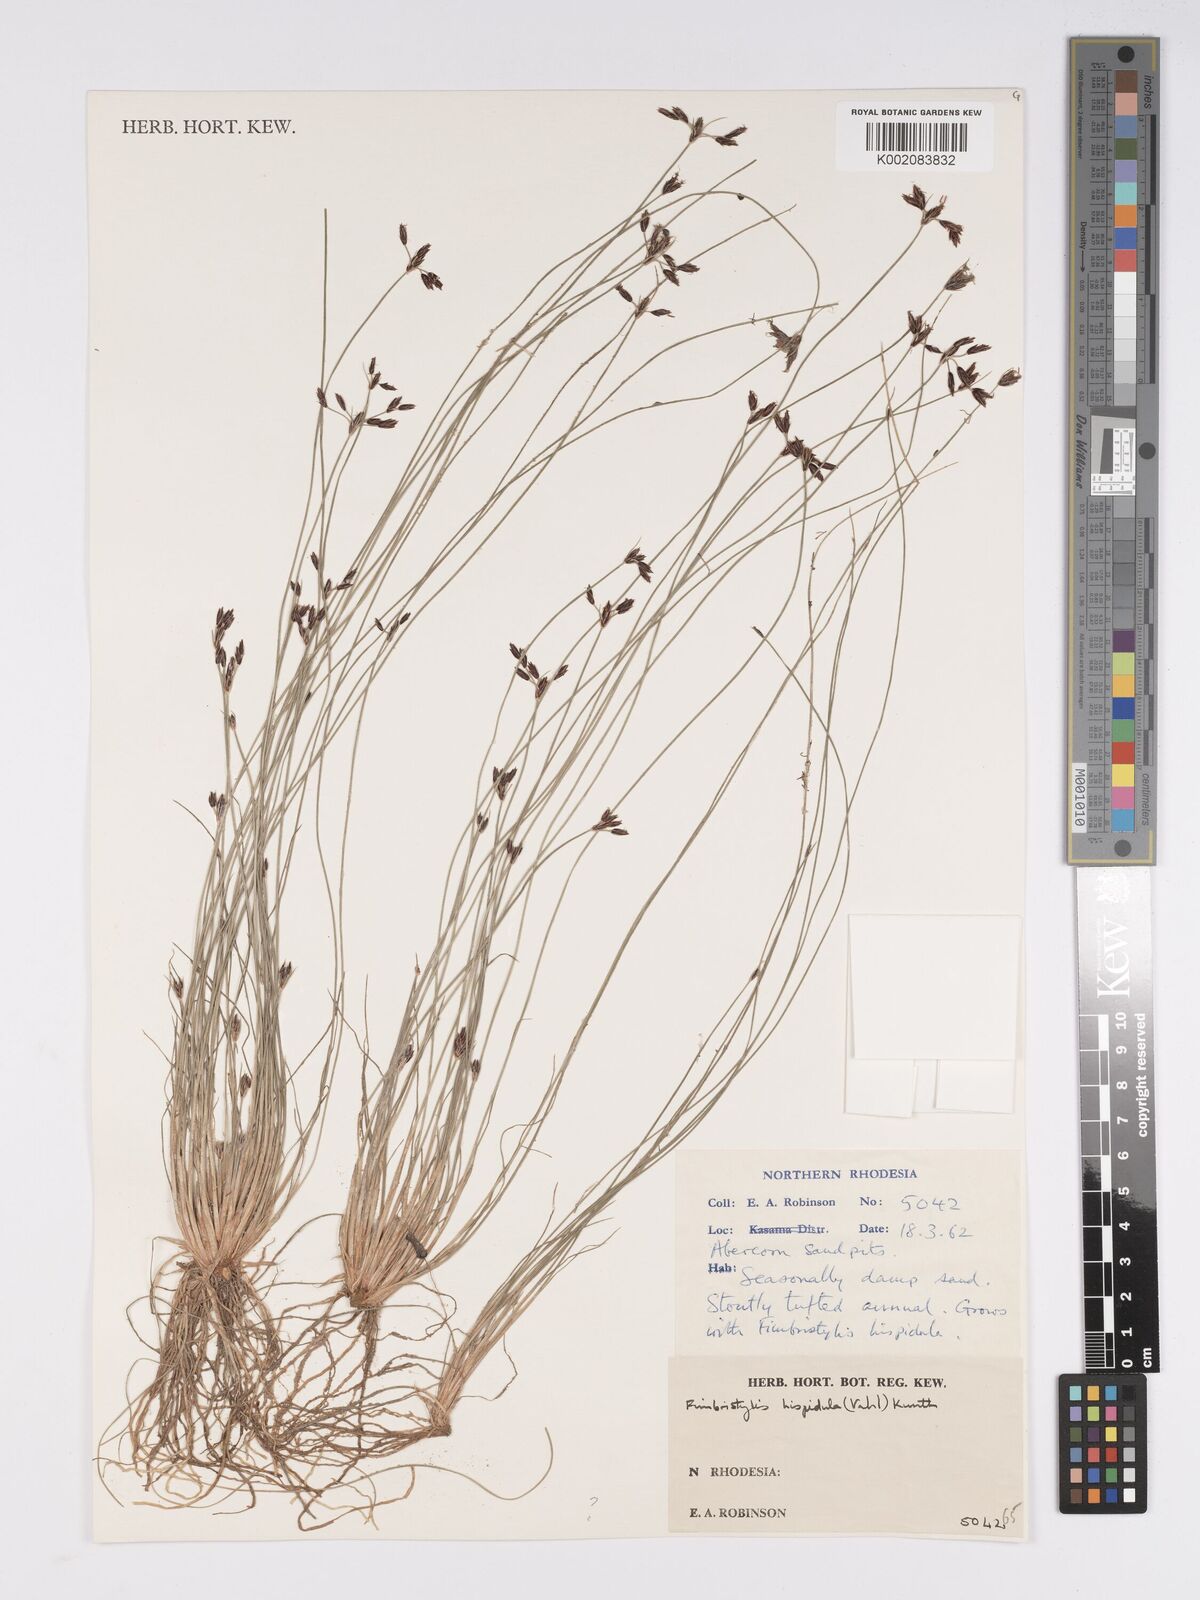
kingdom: Plantae
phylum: Tracheophyta
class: Liliopsida
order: Poales
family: Cyperaceae
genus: Bulbostylis
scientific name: Bulbostylis hispidula
